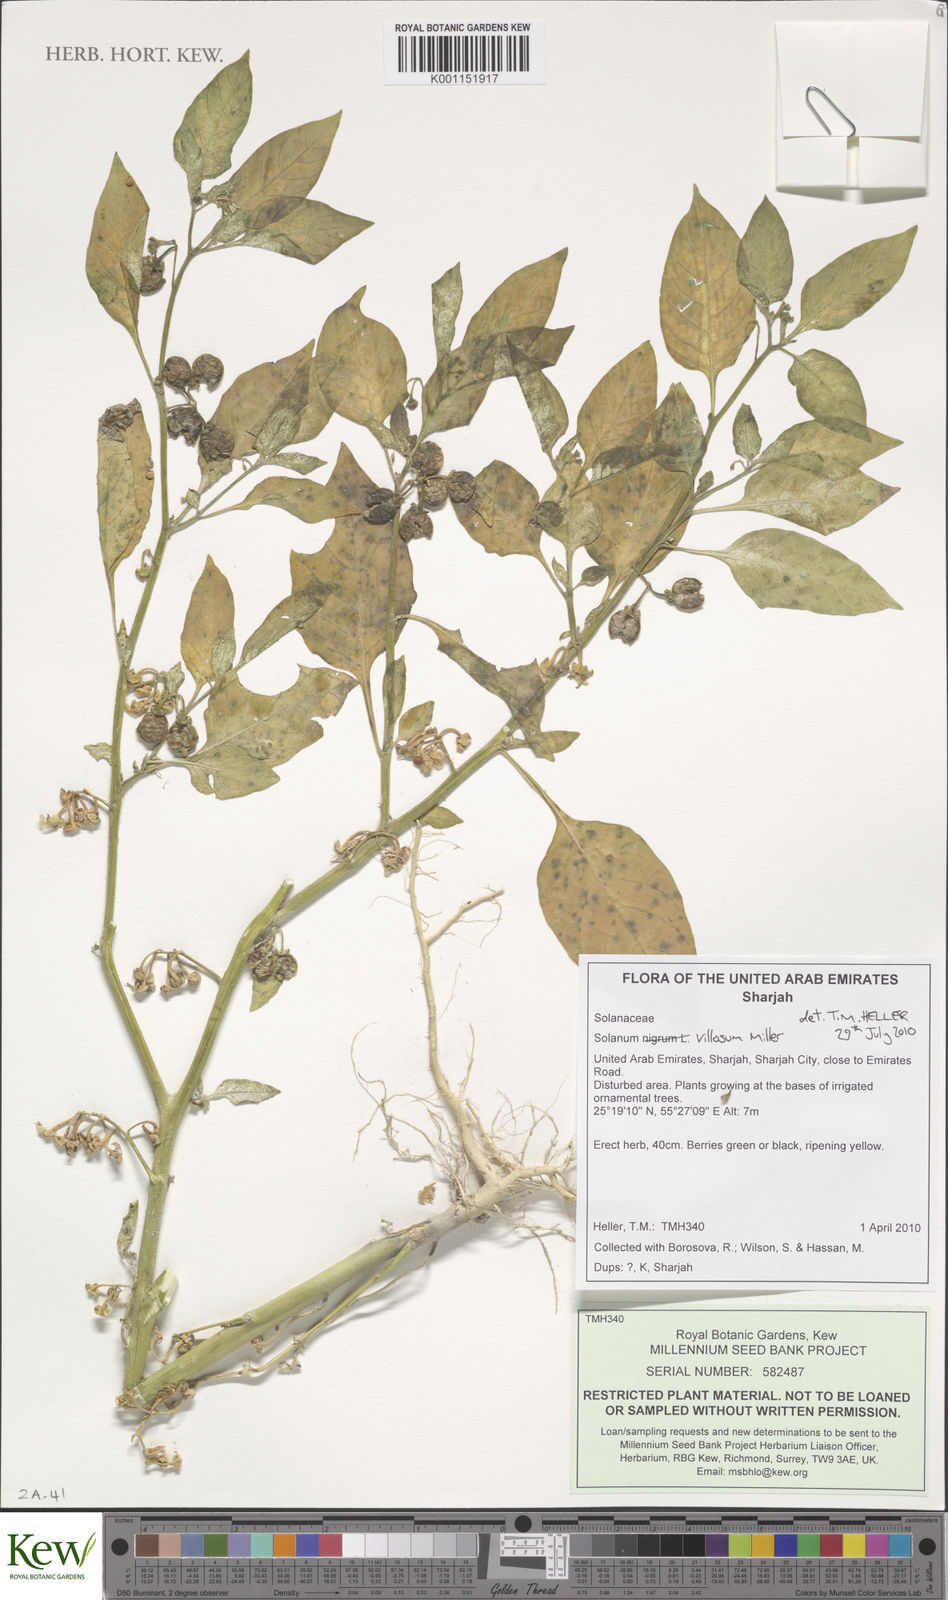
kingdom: Plantae
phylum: Tracheophyta
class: Magnoliopsida
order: Solanales
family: Solanaceae
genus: Solanum
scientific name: Solanum
